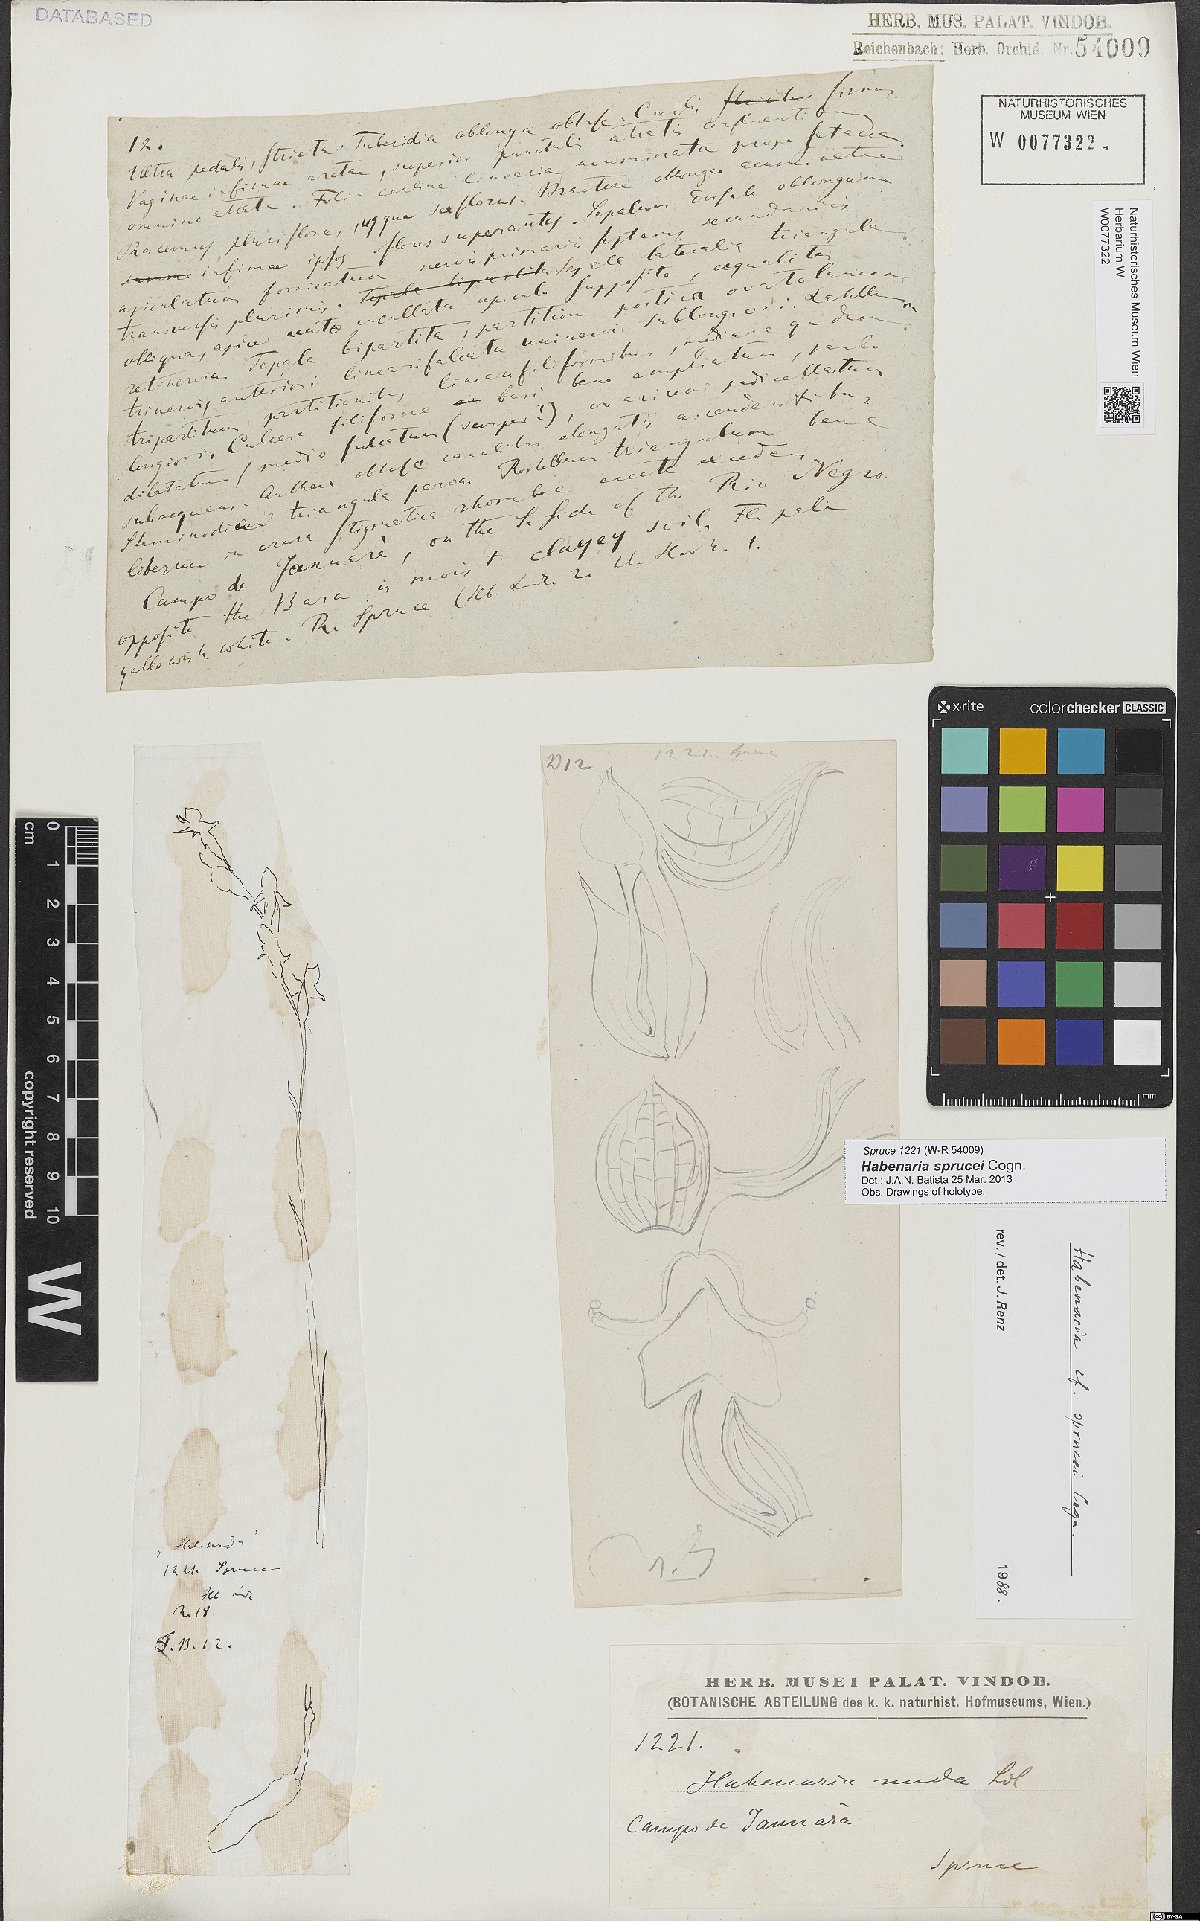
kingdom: Plantae
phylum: Tracheophyta
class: Liliopsida
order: Asparagales
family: Orchidaceae
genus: Habenaria
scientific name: Habenaria sprucei
